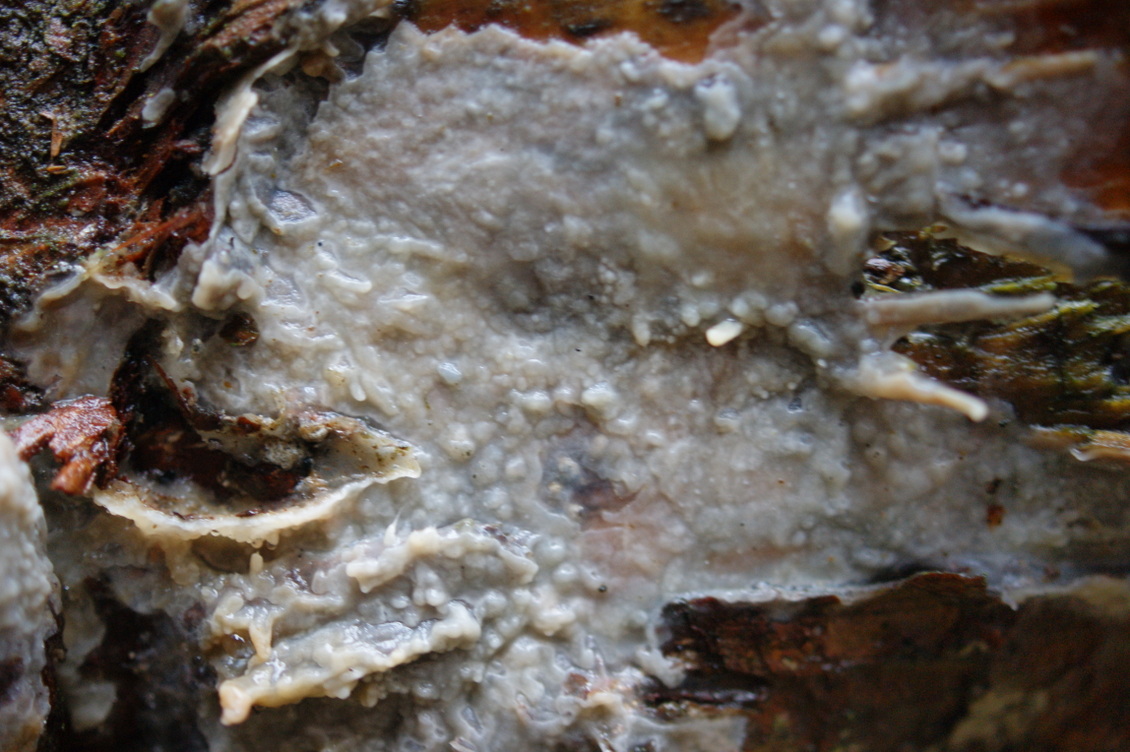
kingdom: Fungi
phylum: Basidiomycota
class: Agaricomycetes
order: Polyporales
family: Phanerochaetaceae
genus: Phlebiopsis
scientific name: Phlebiopsis gigantea
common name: kæmpebarksvamp
